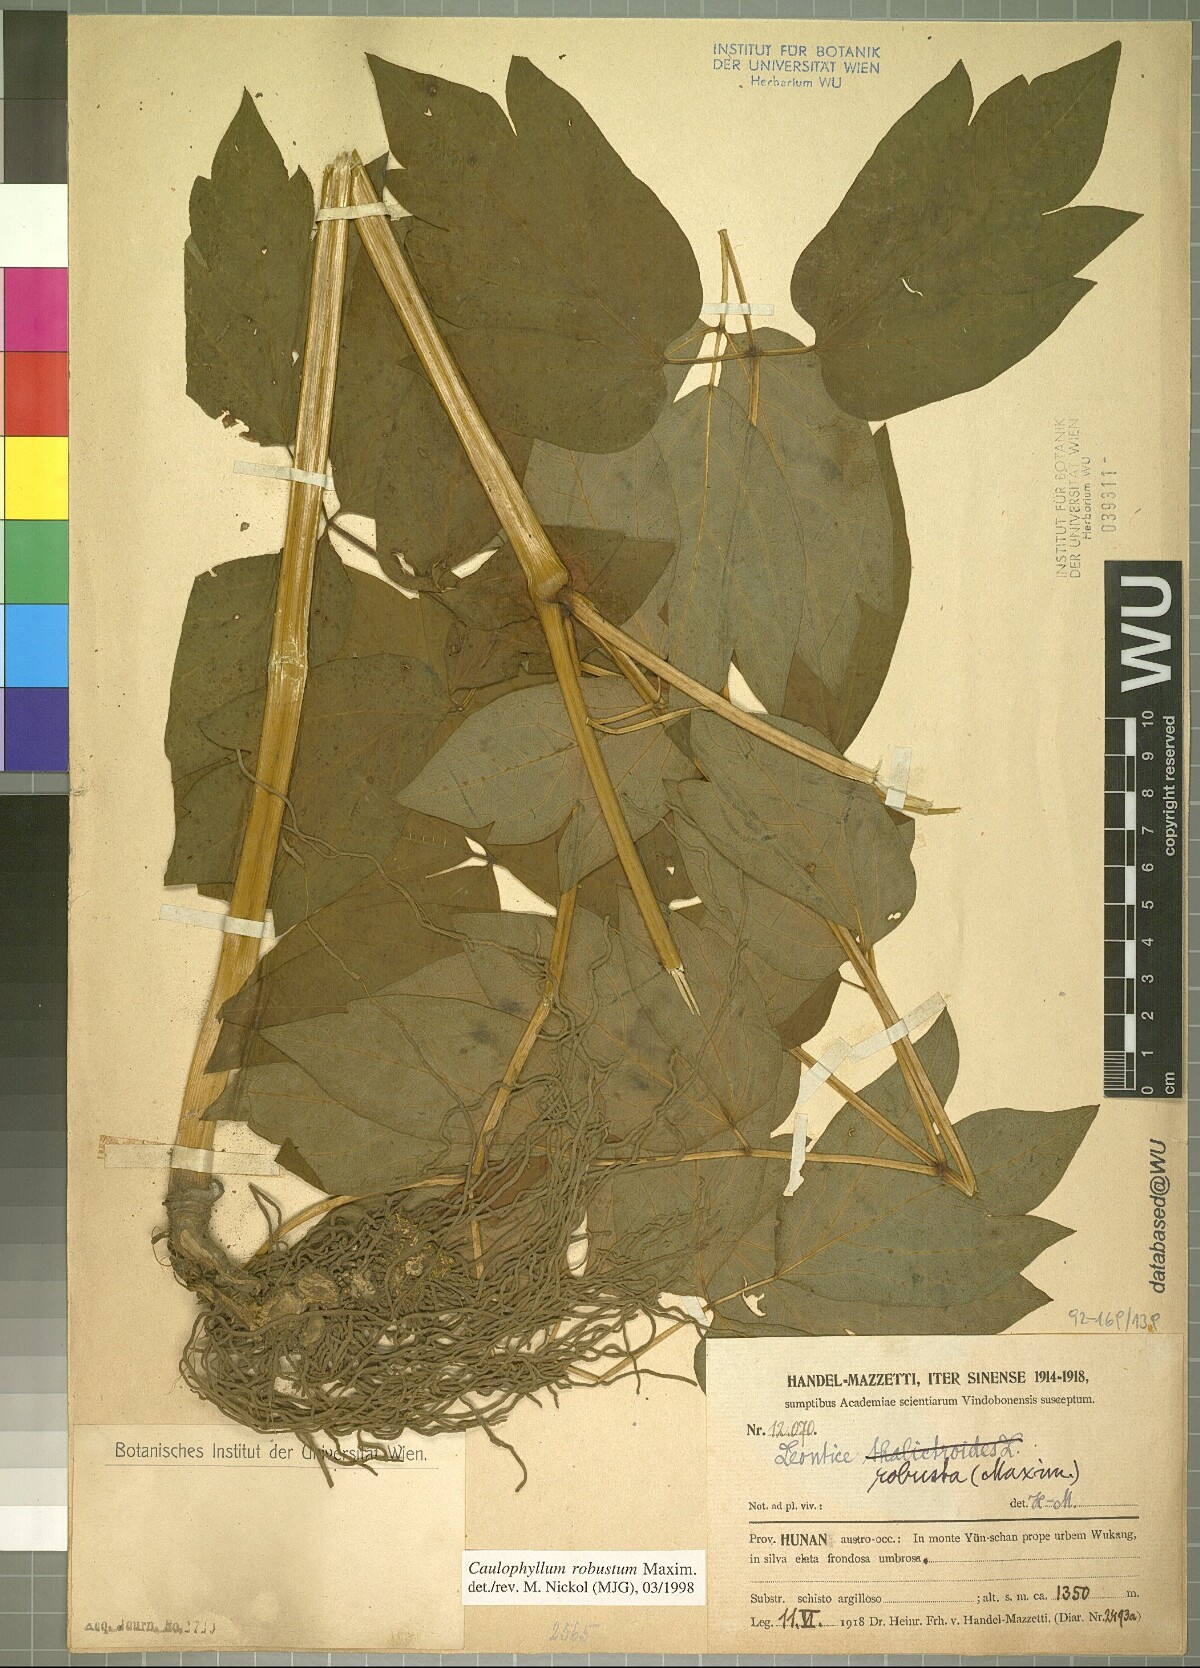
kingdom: Plantae
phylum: Tracheophyta
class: Magnoliopsida
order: Ranunculales
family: Berberidaceae
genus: Caulophyllum
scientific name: Caulophyllum robustum
